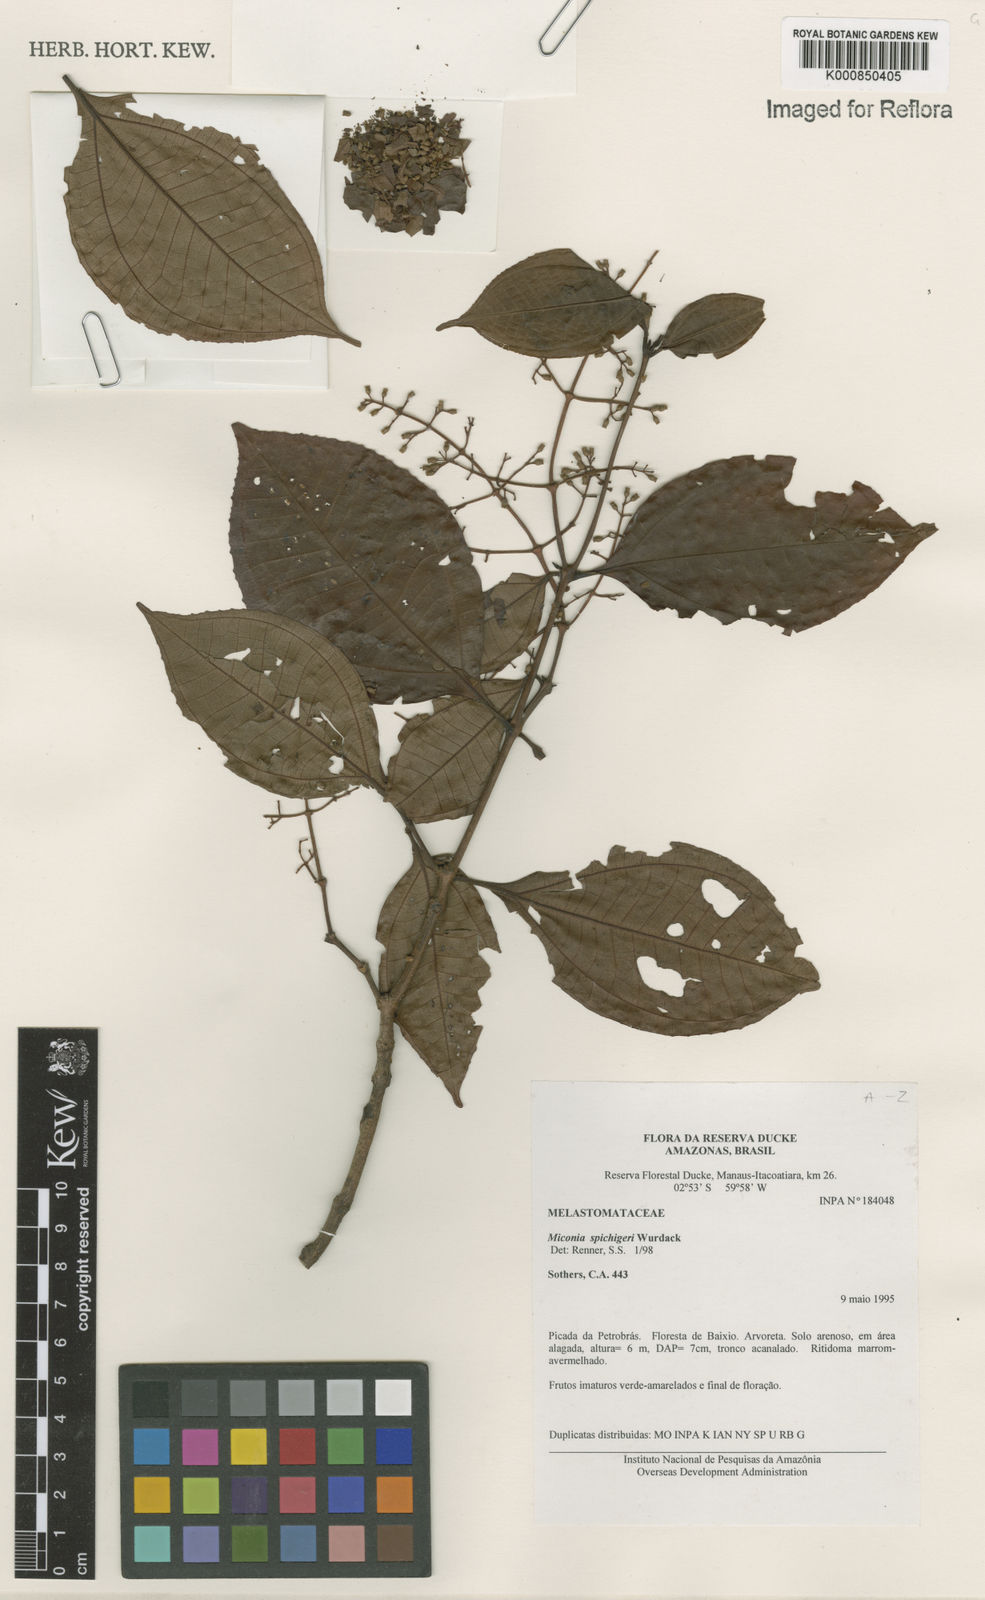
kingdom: Plantae
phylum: Tracheophyta
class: Magnoliopsida
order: Myrtales
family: Melastomataceae
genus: Miconia
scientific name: Miconia spichigeri
